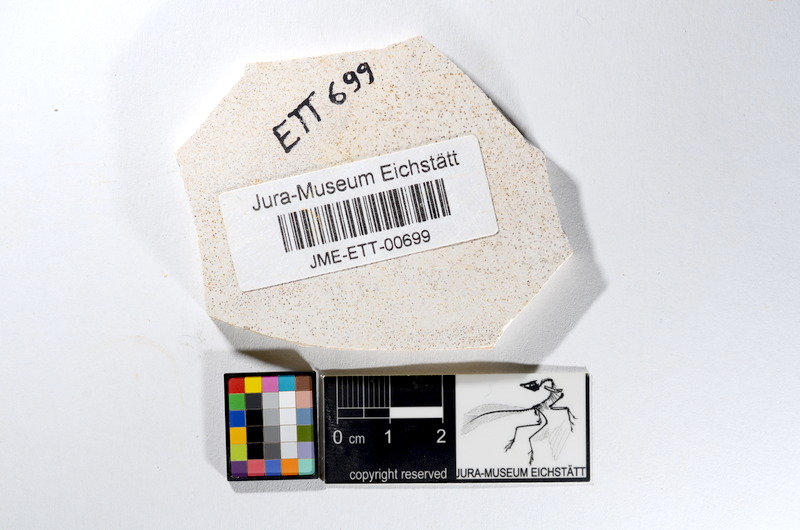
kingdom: Animalia
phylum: Chordata
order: Salmoniformes
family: Orthogonikleithridae
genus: Orthogonikleithrus
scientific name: Orthogonikleithrus hoelli
